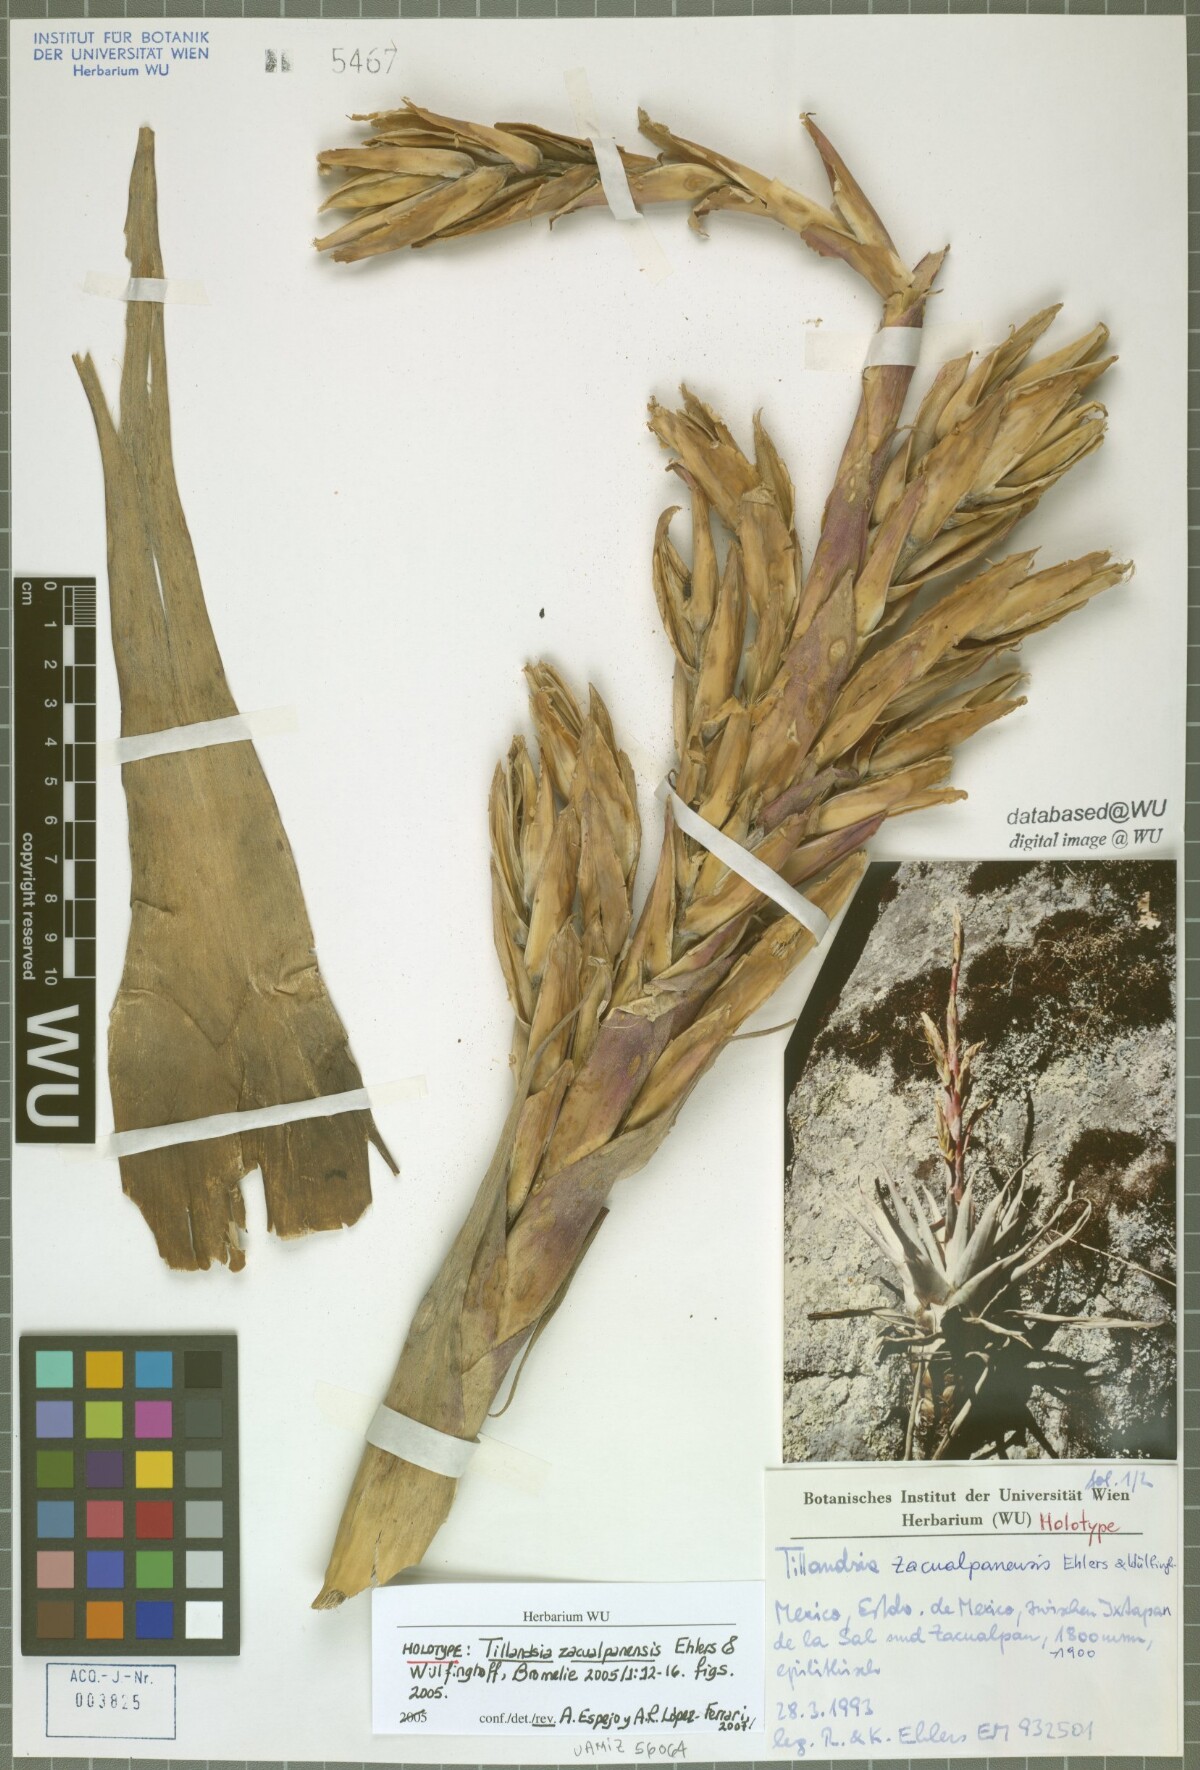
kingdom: Plantae
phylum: Tracheophyta
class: Liliopsida
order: Poales
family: Bromeliaceae
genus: Tillandsia
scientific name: Tillandsia zacualpanensis
